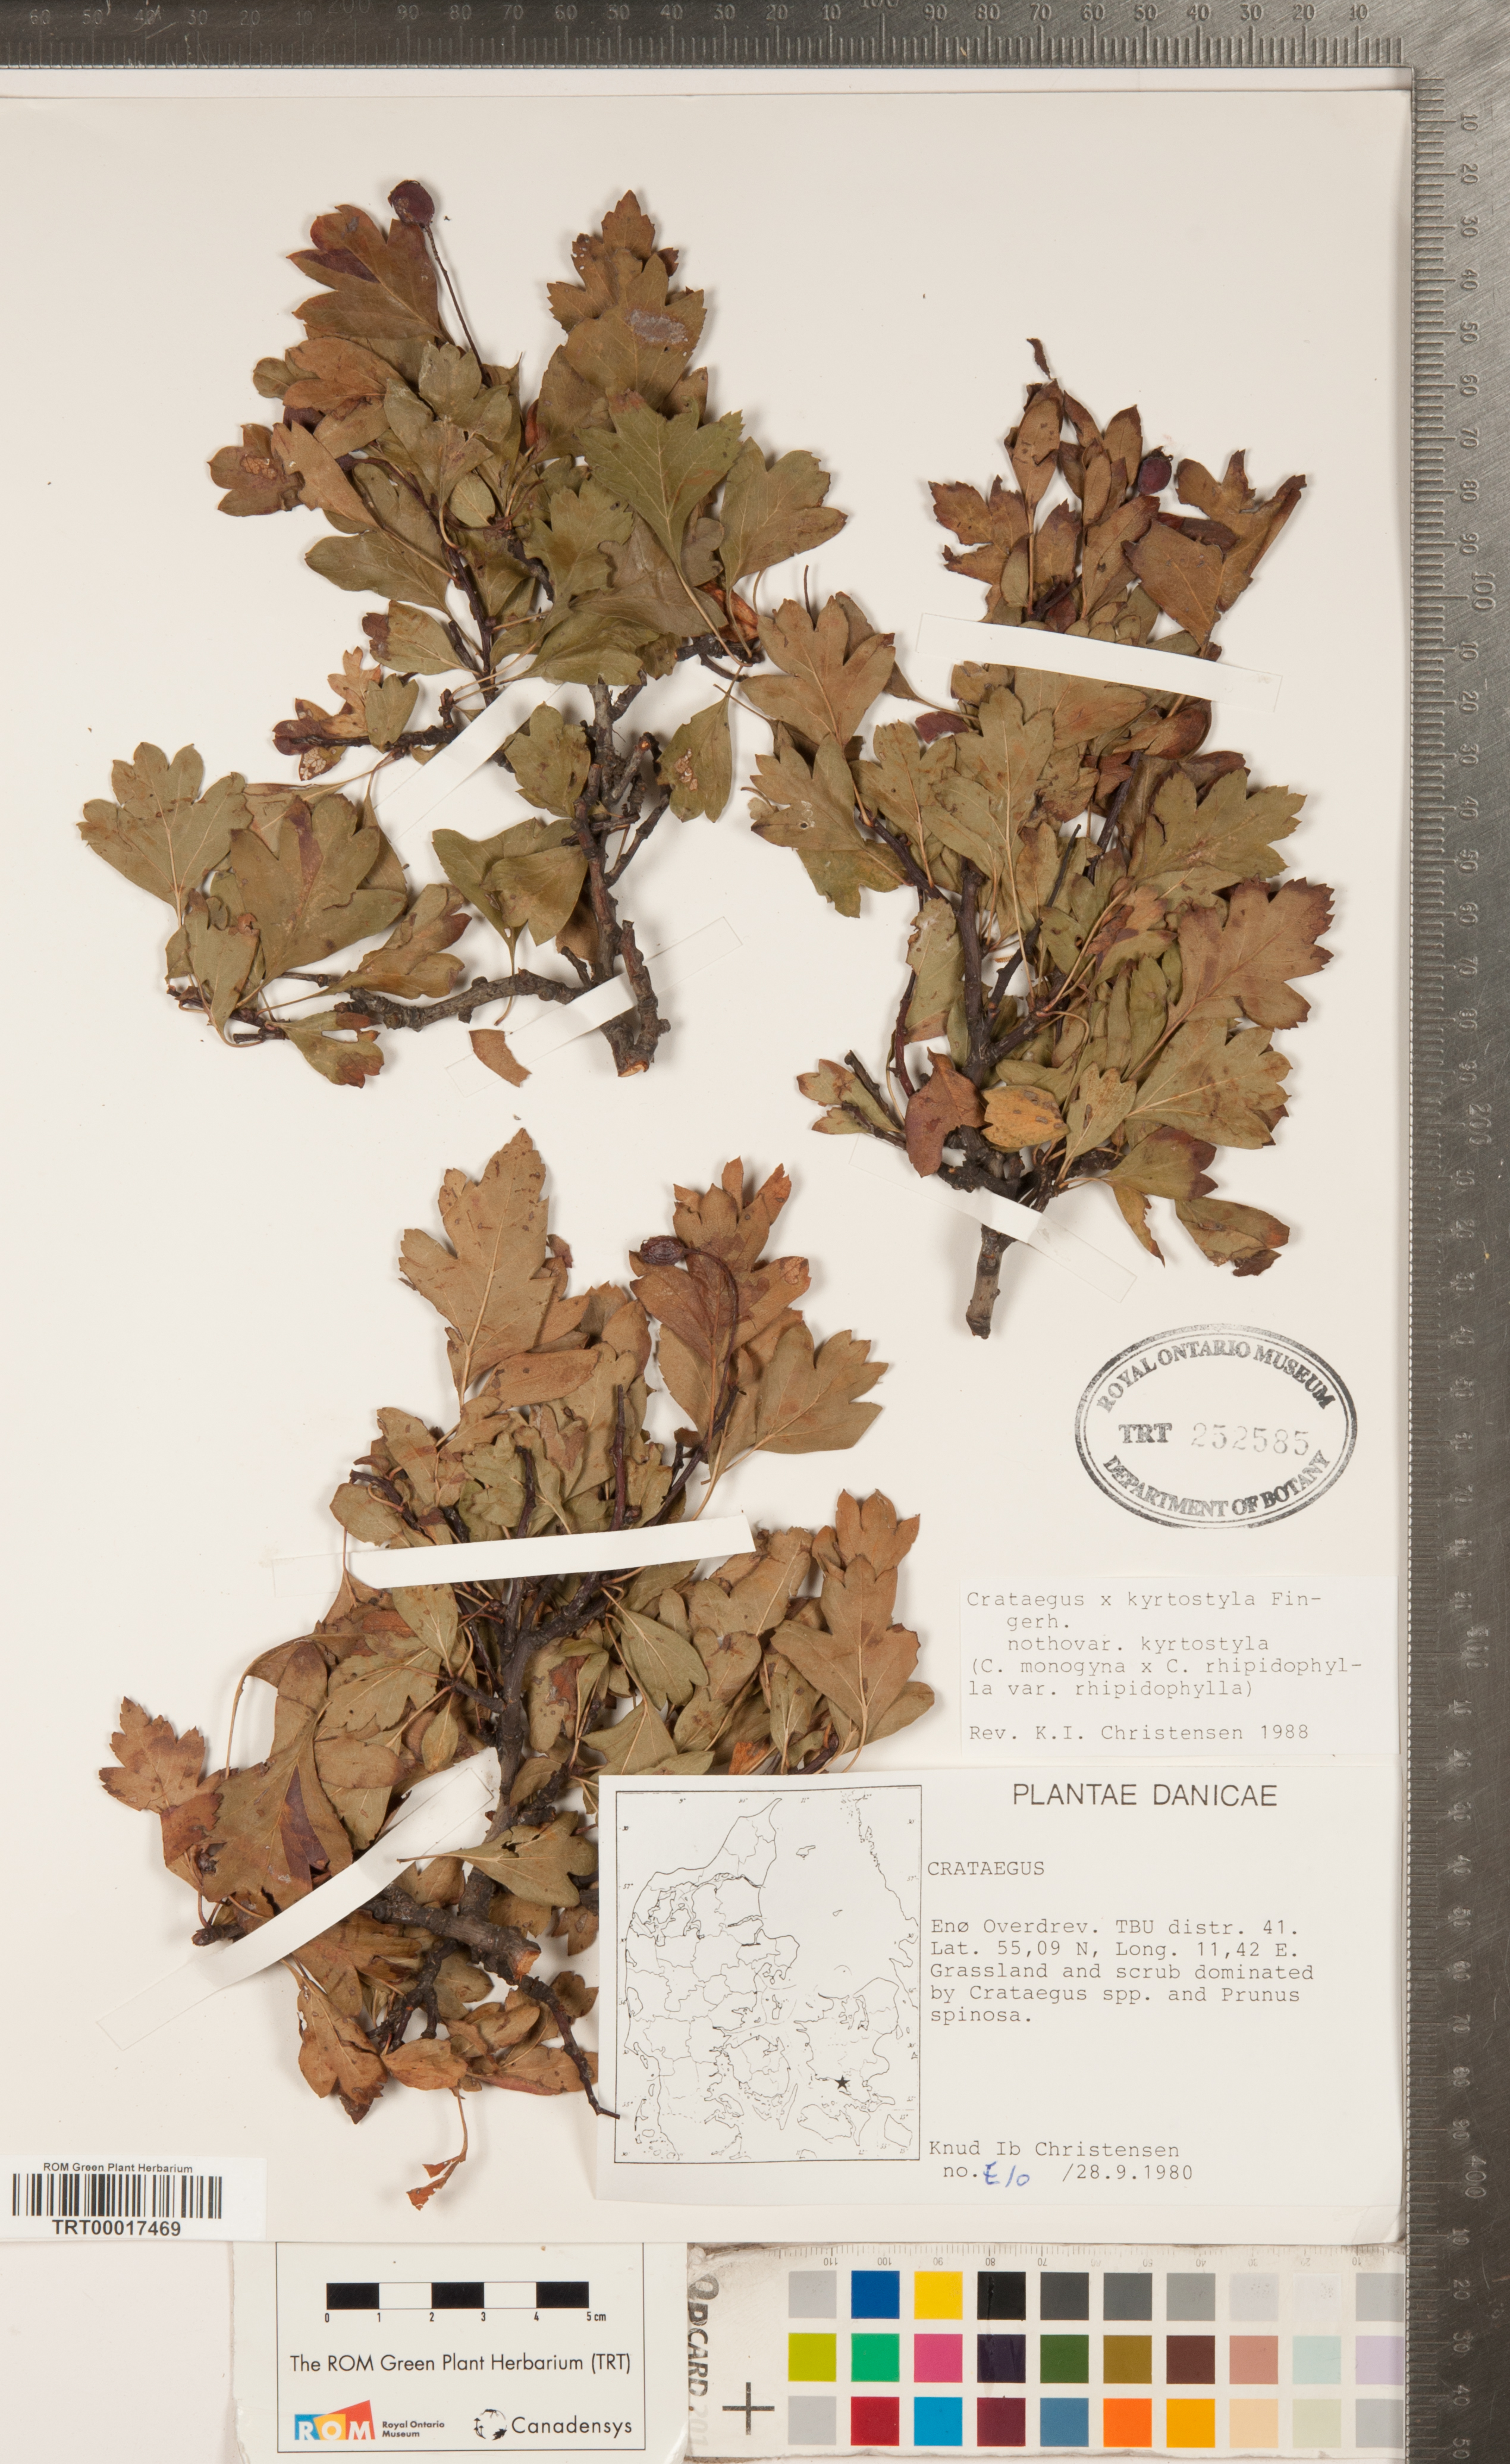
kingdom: Plantae
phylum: Tracheophyta
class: Magnoliopsida
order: Rosales
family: Rosaceae
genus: Crataegus
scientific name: Crataegus kyrtostyla
